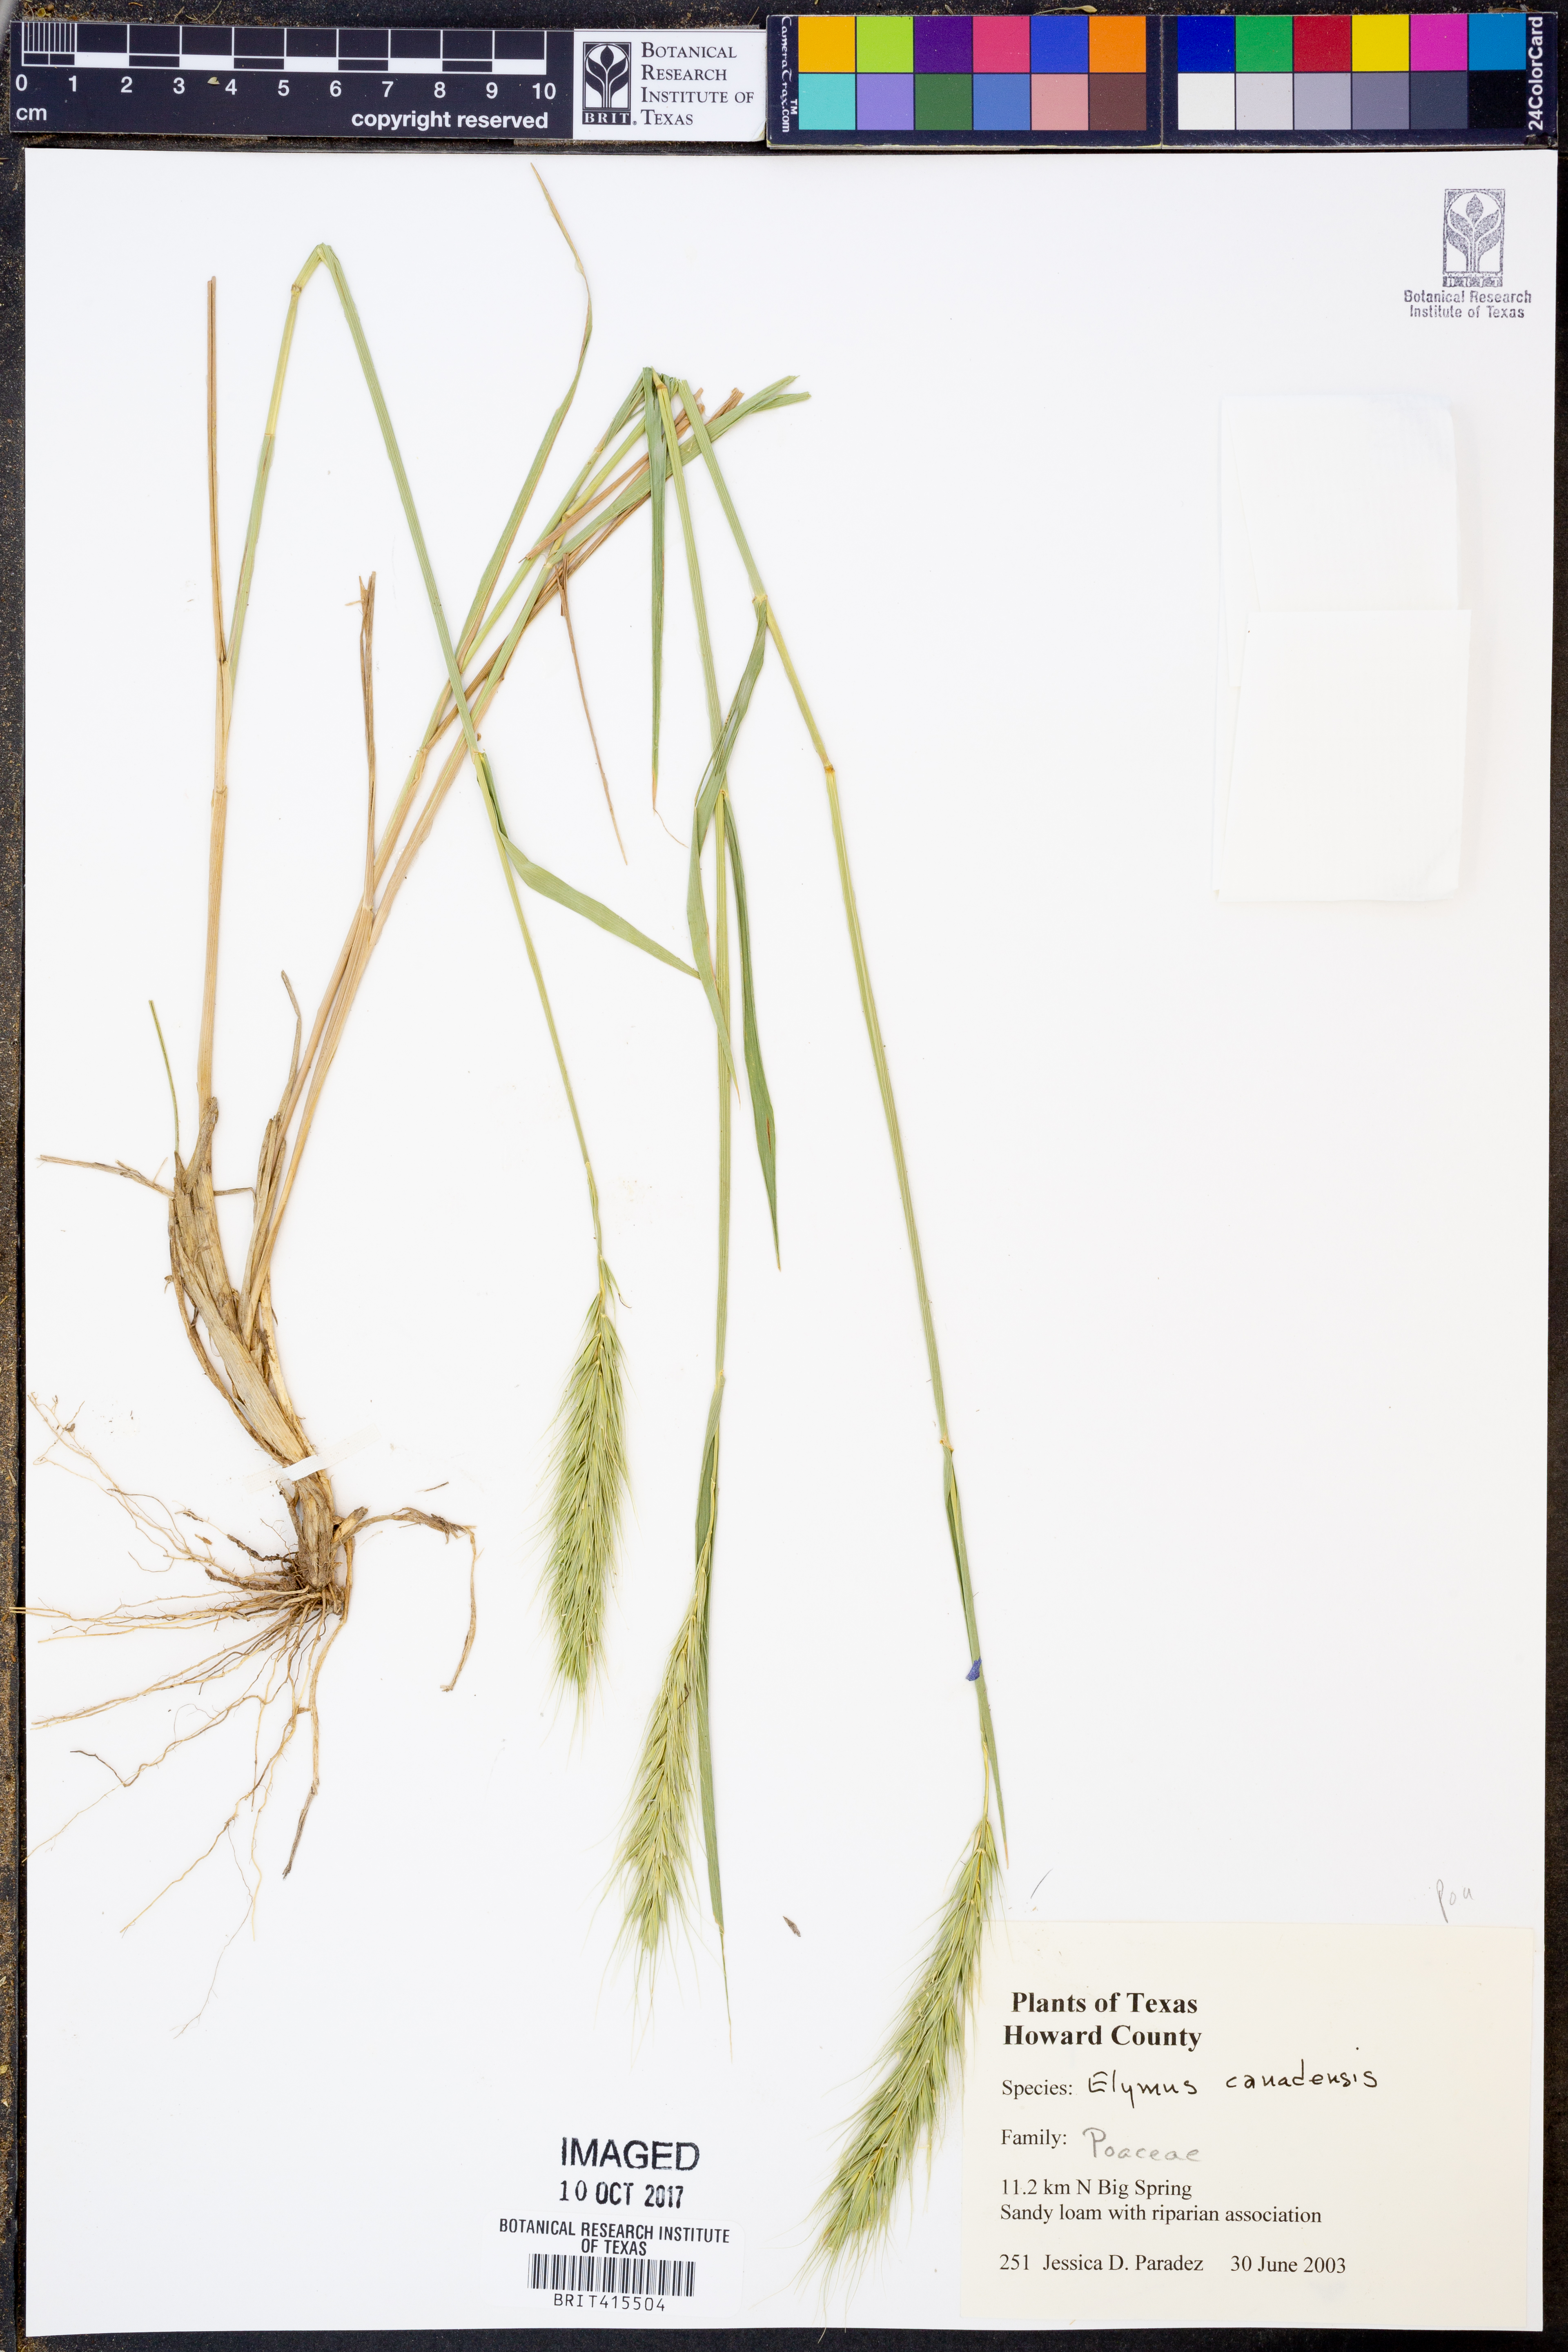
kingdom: Plantae
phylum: Tracheophyta
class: Liliopsida
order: Poales
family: Poaceae
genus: Elymus
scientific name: Elymus canadensis
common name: Canada wild rye
